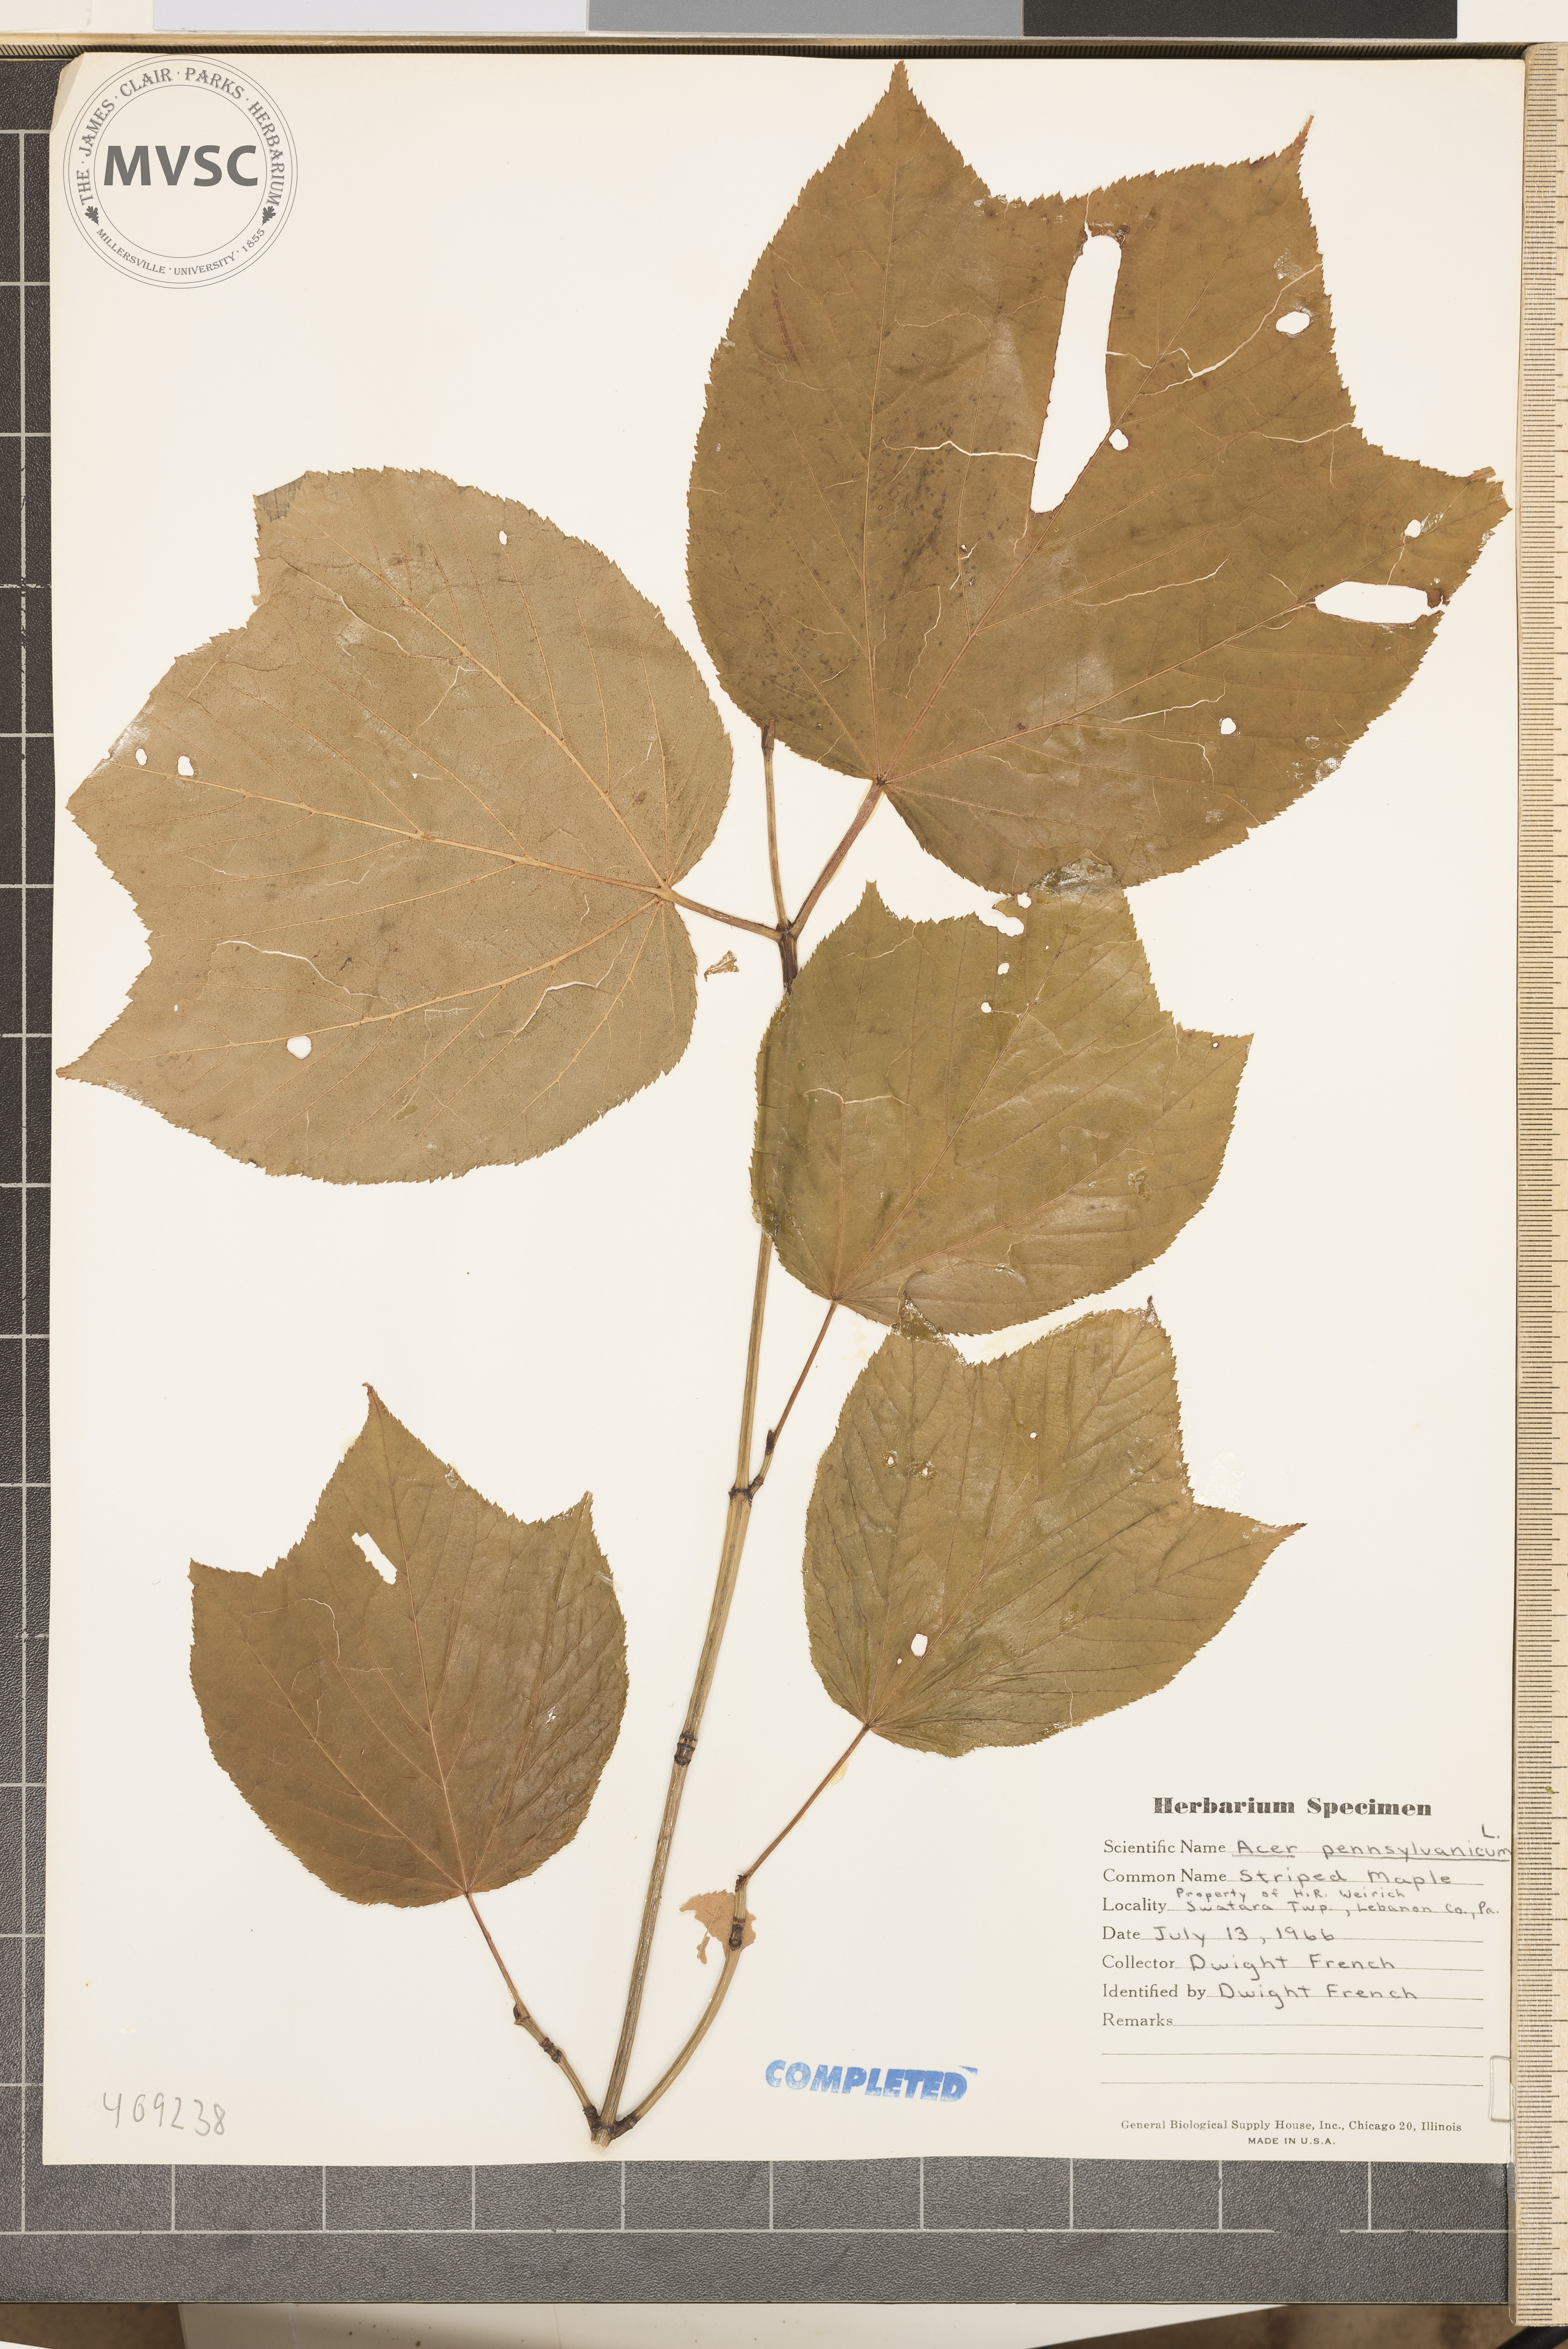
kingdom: Plantae
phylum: Tracheophyta
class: Magnoliopsida
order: Sapindales
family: Sapindaceae
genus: Acer
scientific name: Acer pensylvanicum
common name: Moosewood
